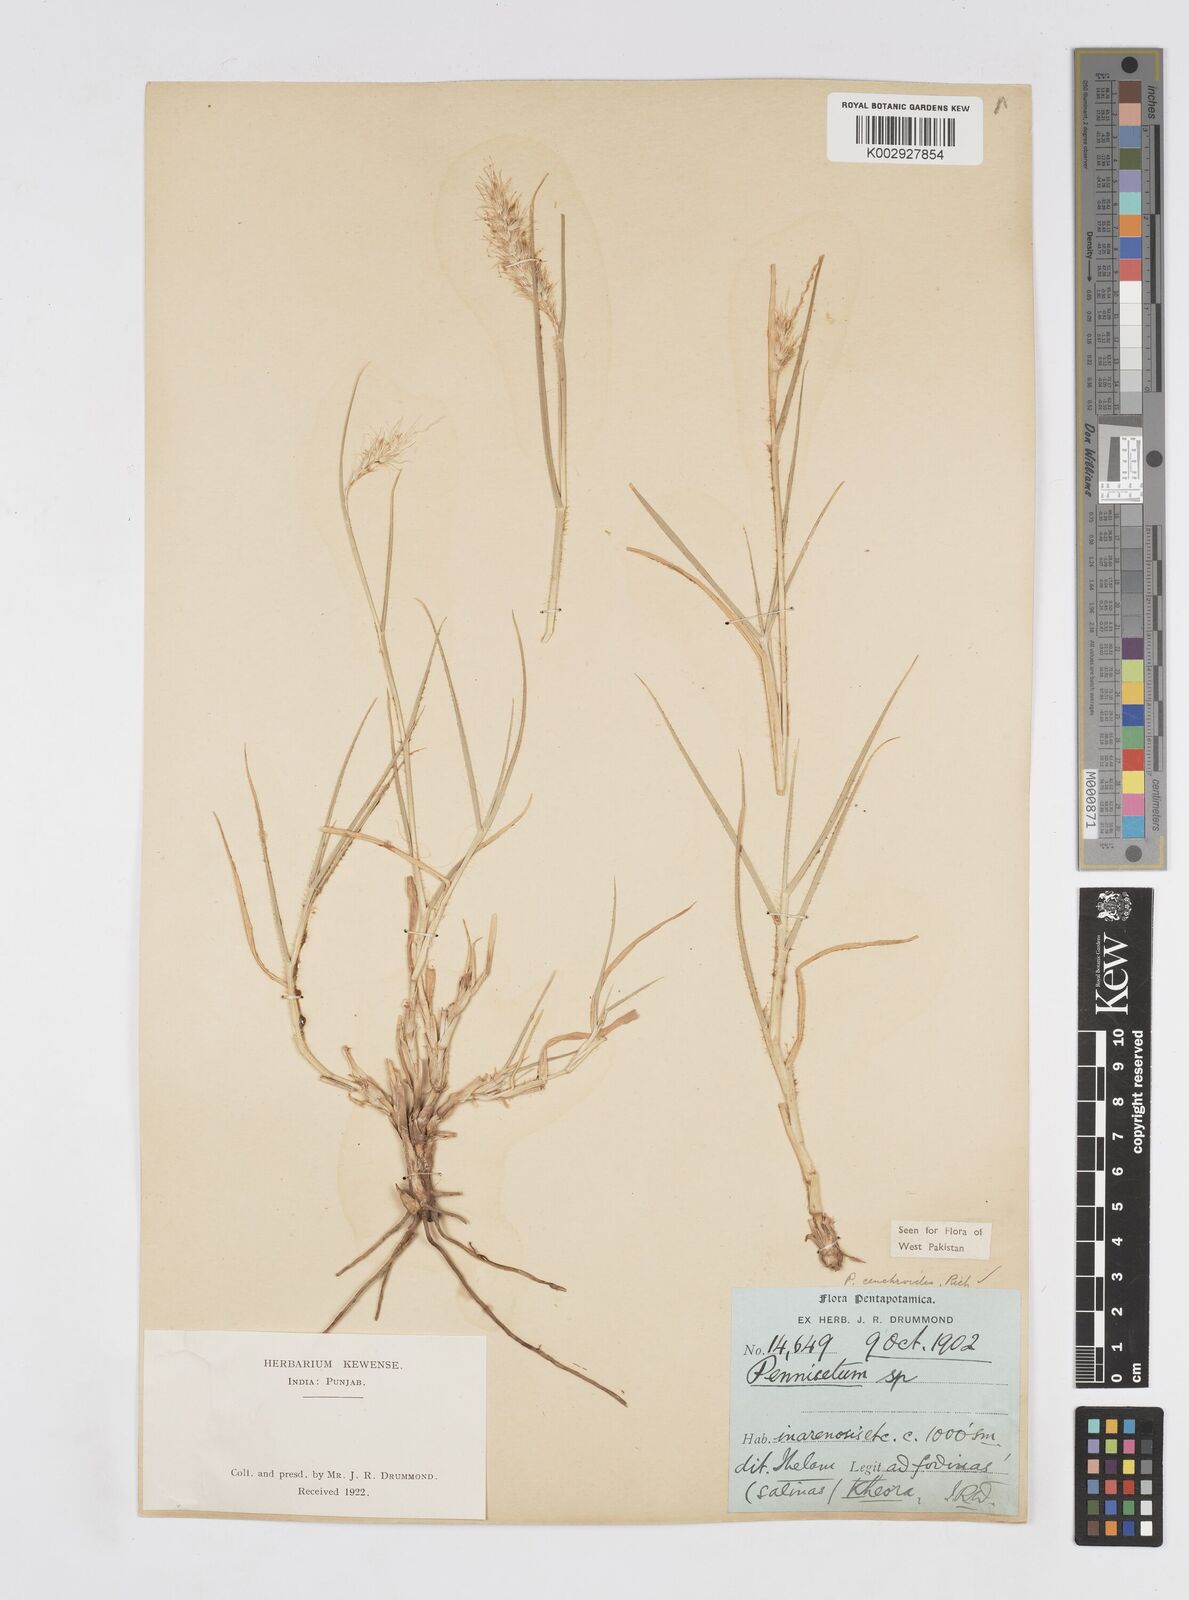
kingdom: Plantae
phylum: Tracheophyta
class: Liliopsida
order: Poales
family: Poaceae
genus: Cenchrus
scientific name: Cenchrus ciliaris
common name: Buffelgrass
